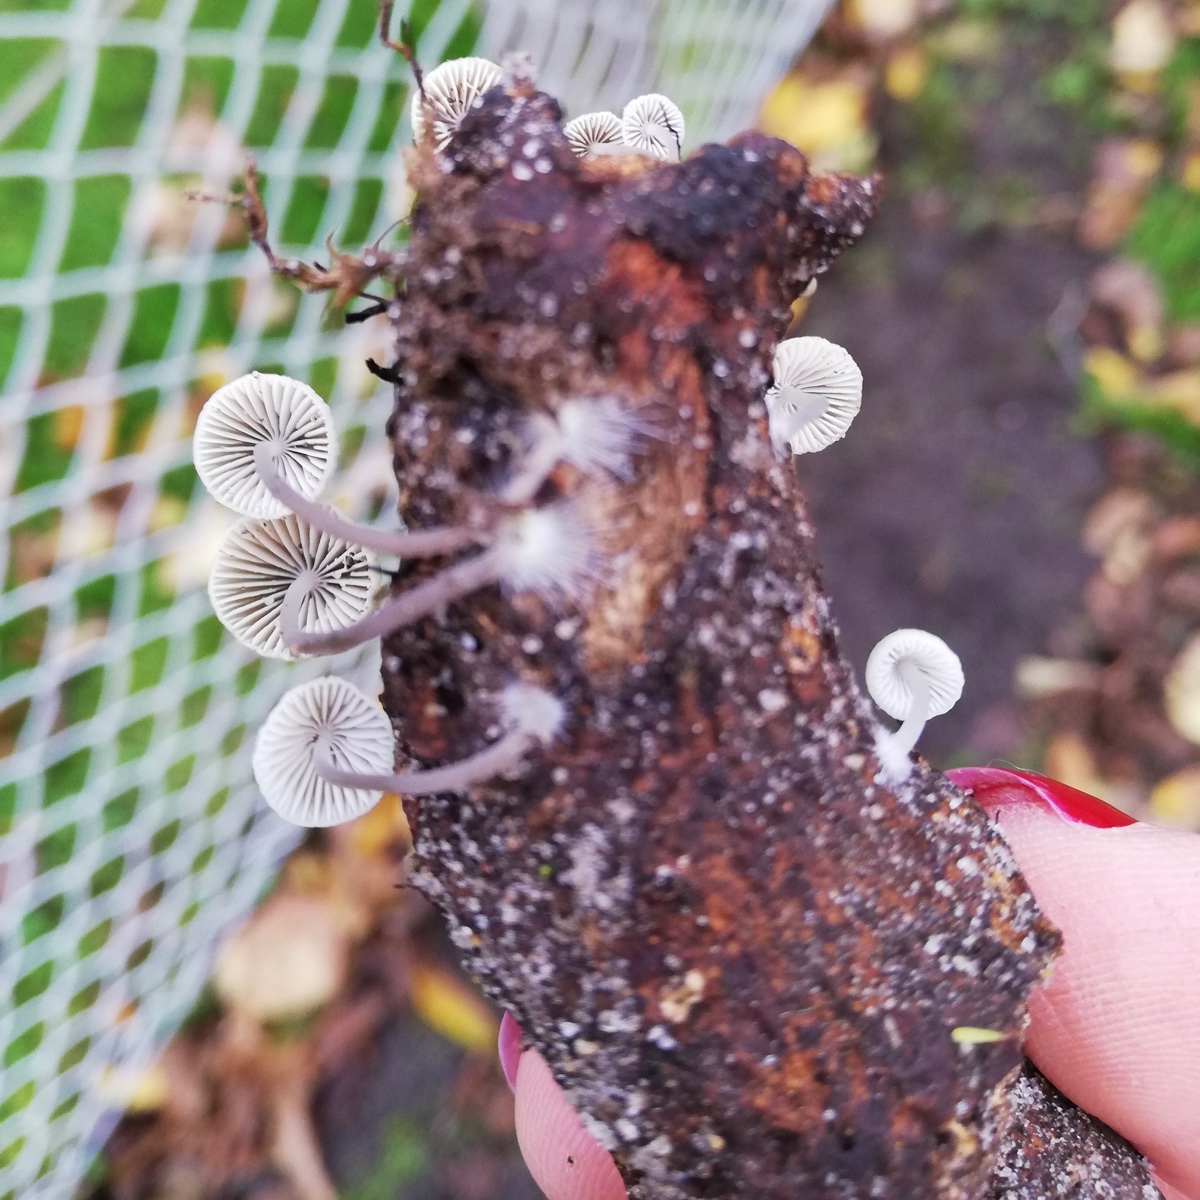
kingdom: Fungi
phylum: Basidiomycota
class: Agaricomycetes
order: Agaricales
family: Mycenaceae
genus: Mycena
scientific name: Mycena arcangeliana
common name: oliven-huesvamp
